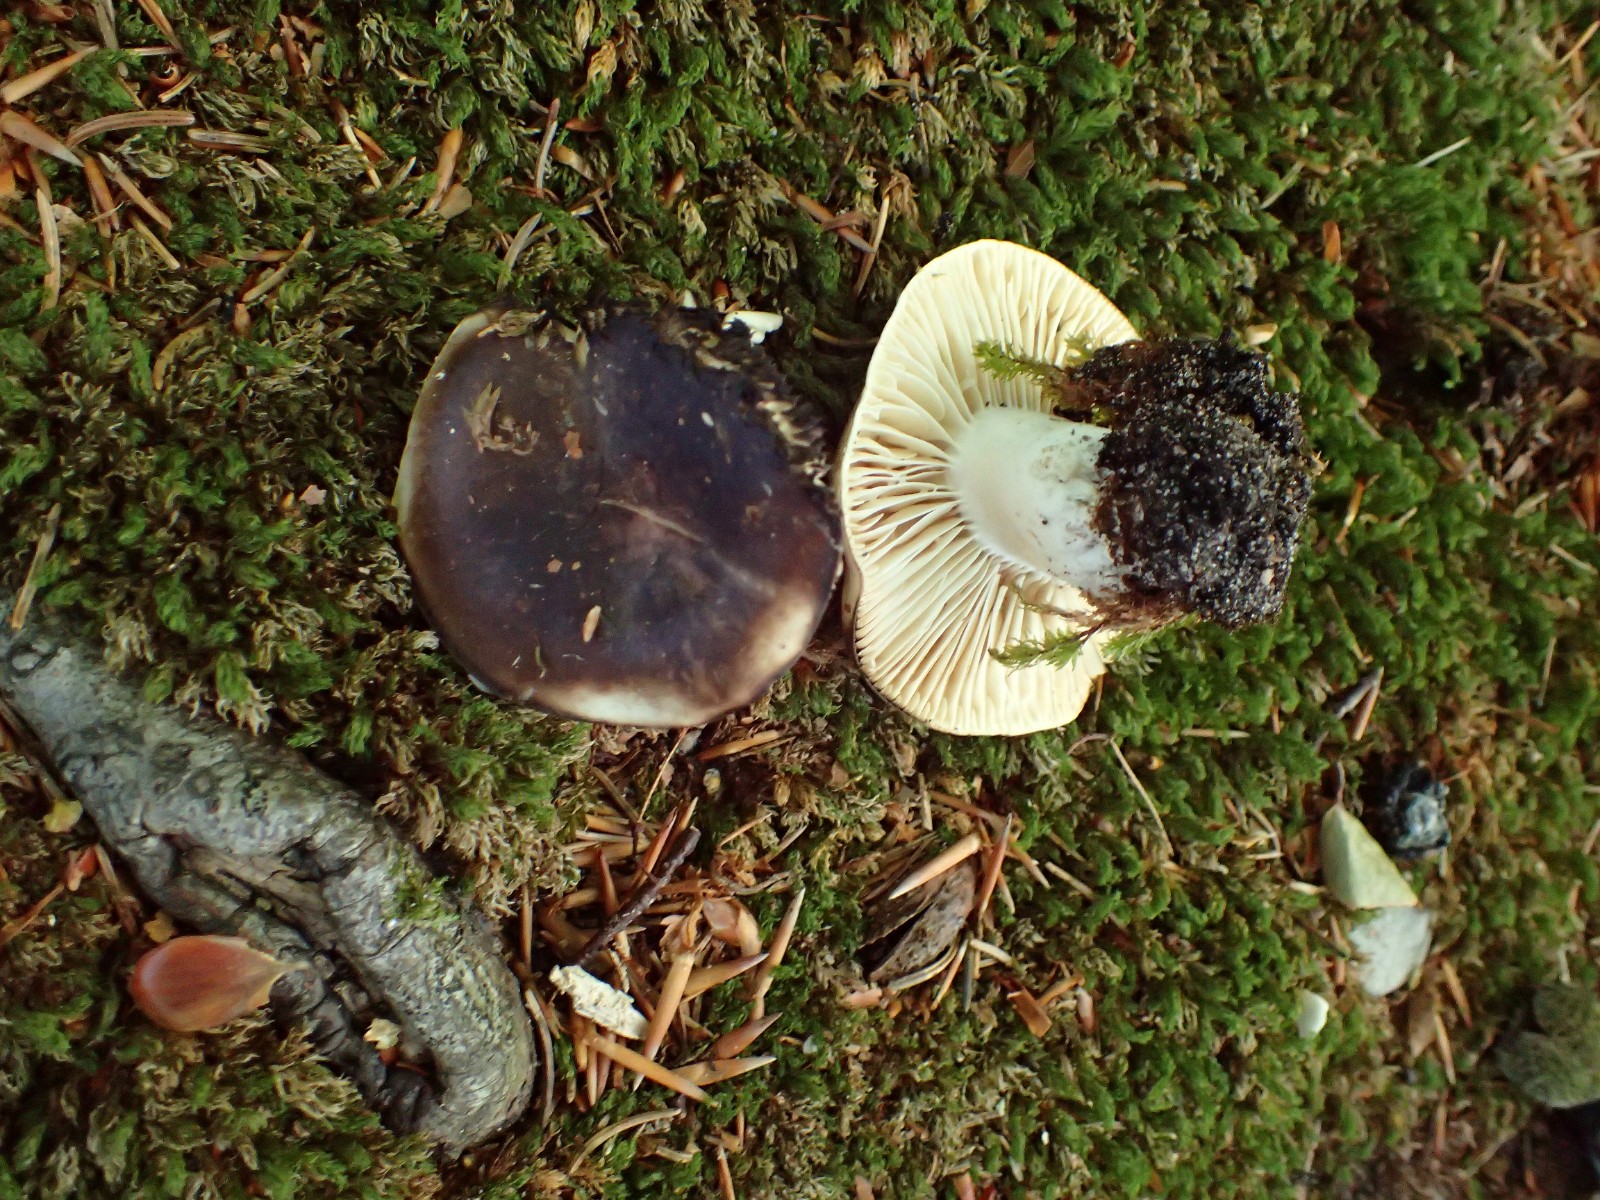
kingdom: Fungi
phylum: Basidiomycota
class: Agaricomycetes
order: Russulales
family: Russulaceae
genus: Russula
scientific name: Russula adusta
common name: sværtende skørhat
